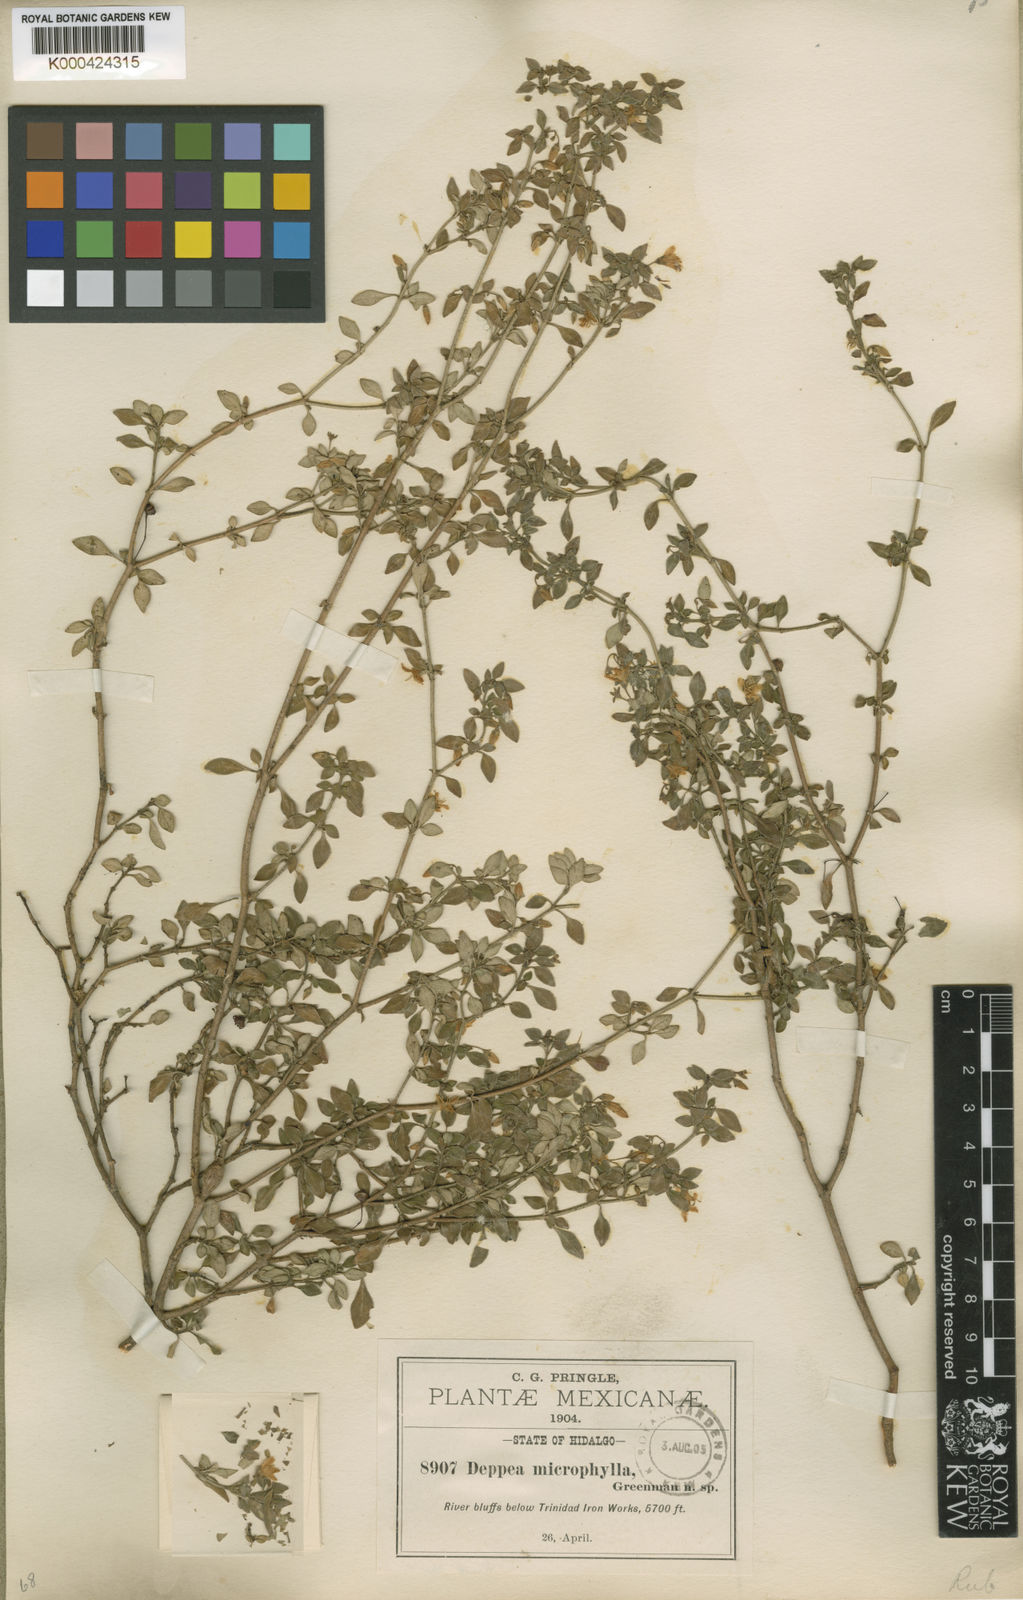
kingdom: Plantae
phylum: Tracheophyta
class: Magnoliopsida
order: Gentianales
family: Rubiaceae
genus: Deppea
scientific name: Deppea microphylla
